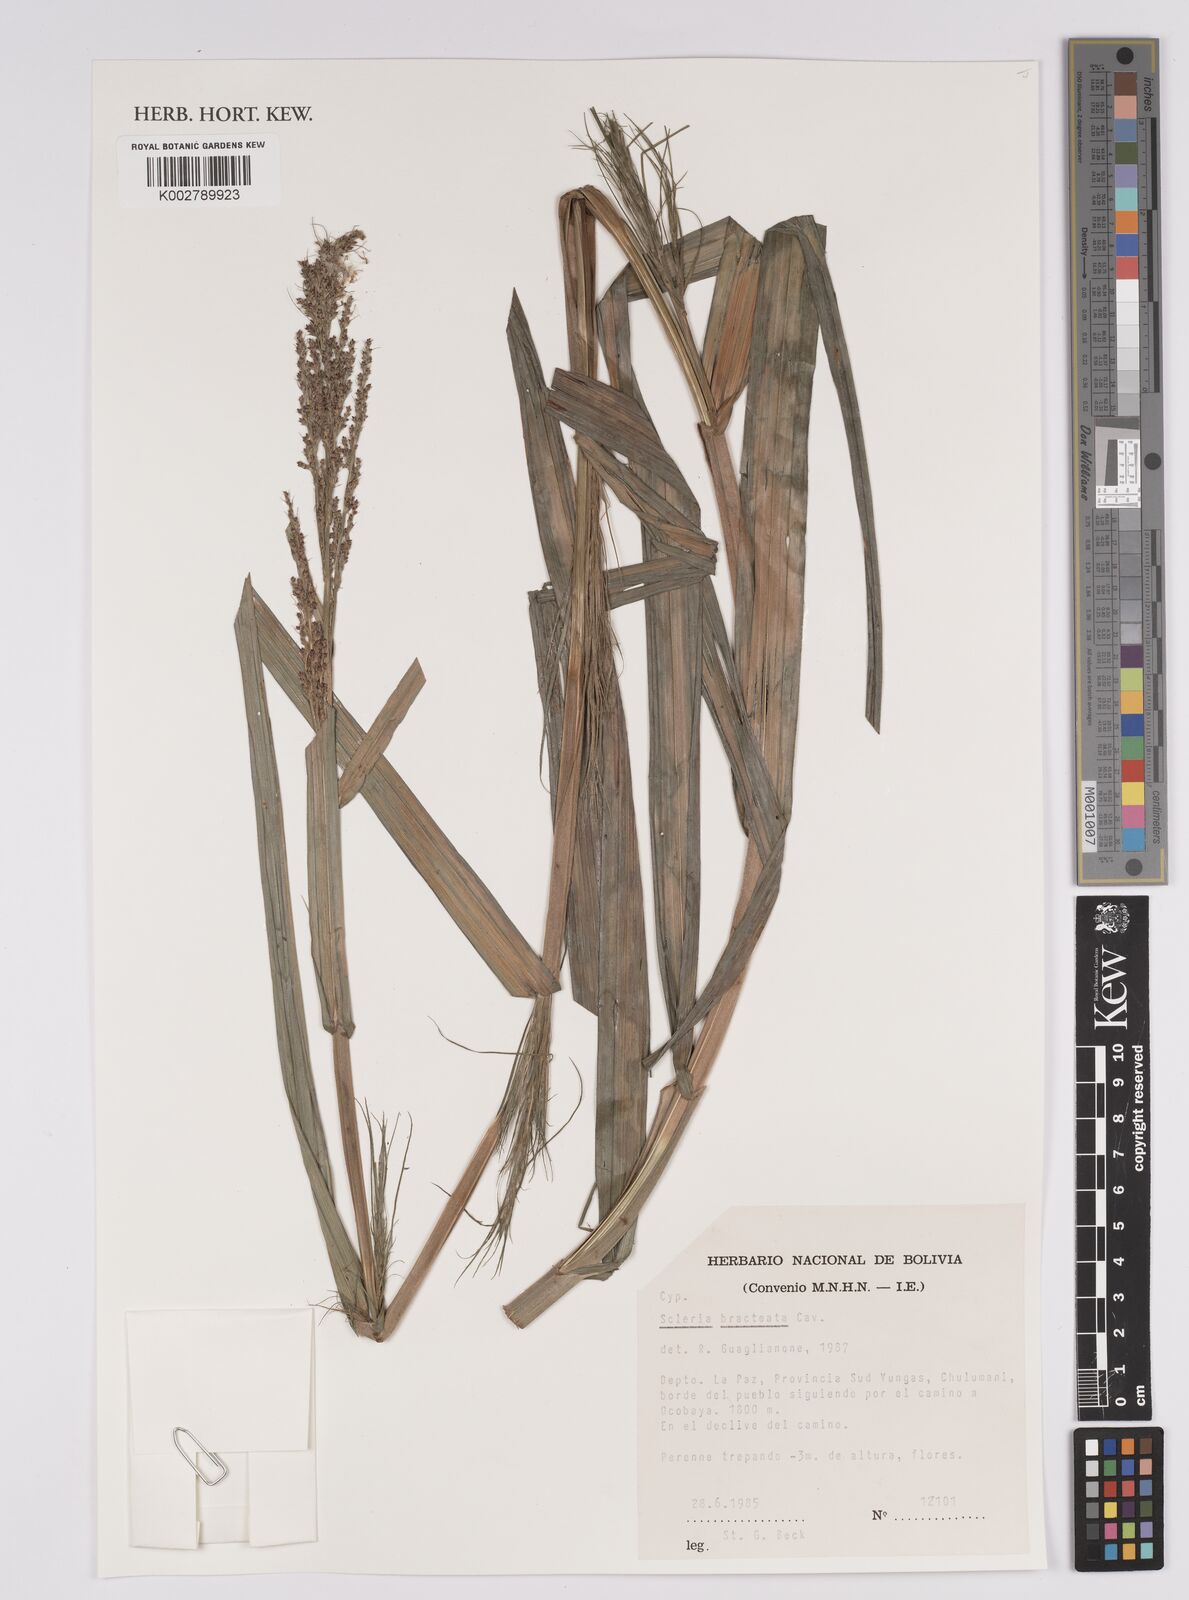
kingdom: Plantae
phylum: Tracheophyta
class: Liliopsida
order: Poales
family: Cyperaceae
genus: Scleria
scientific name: Scleria bracteata
